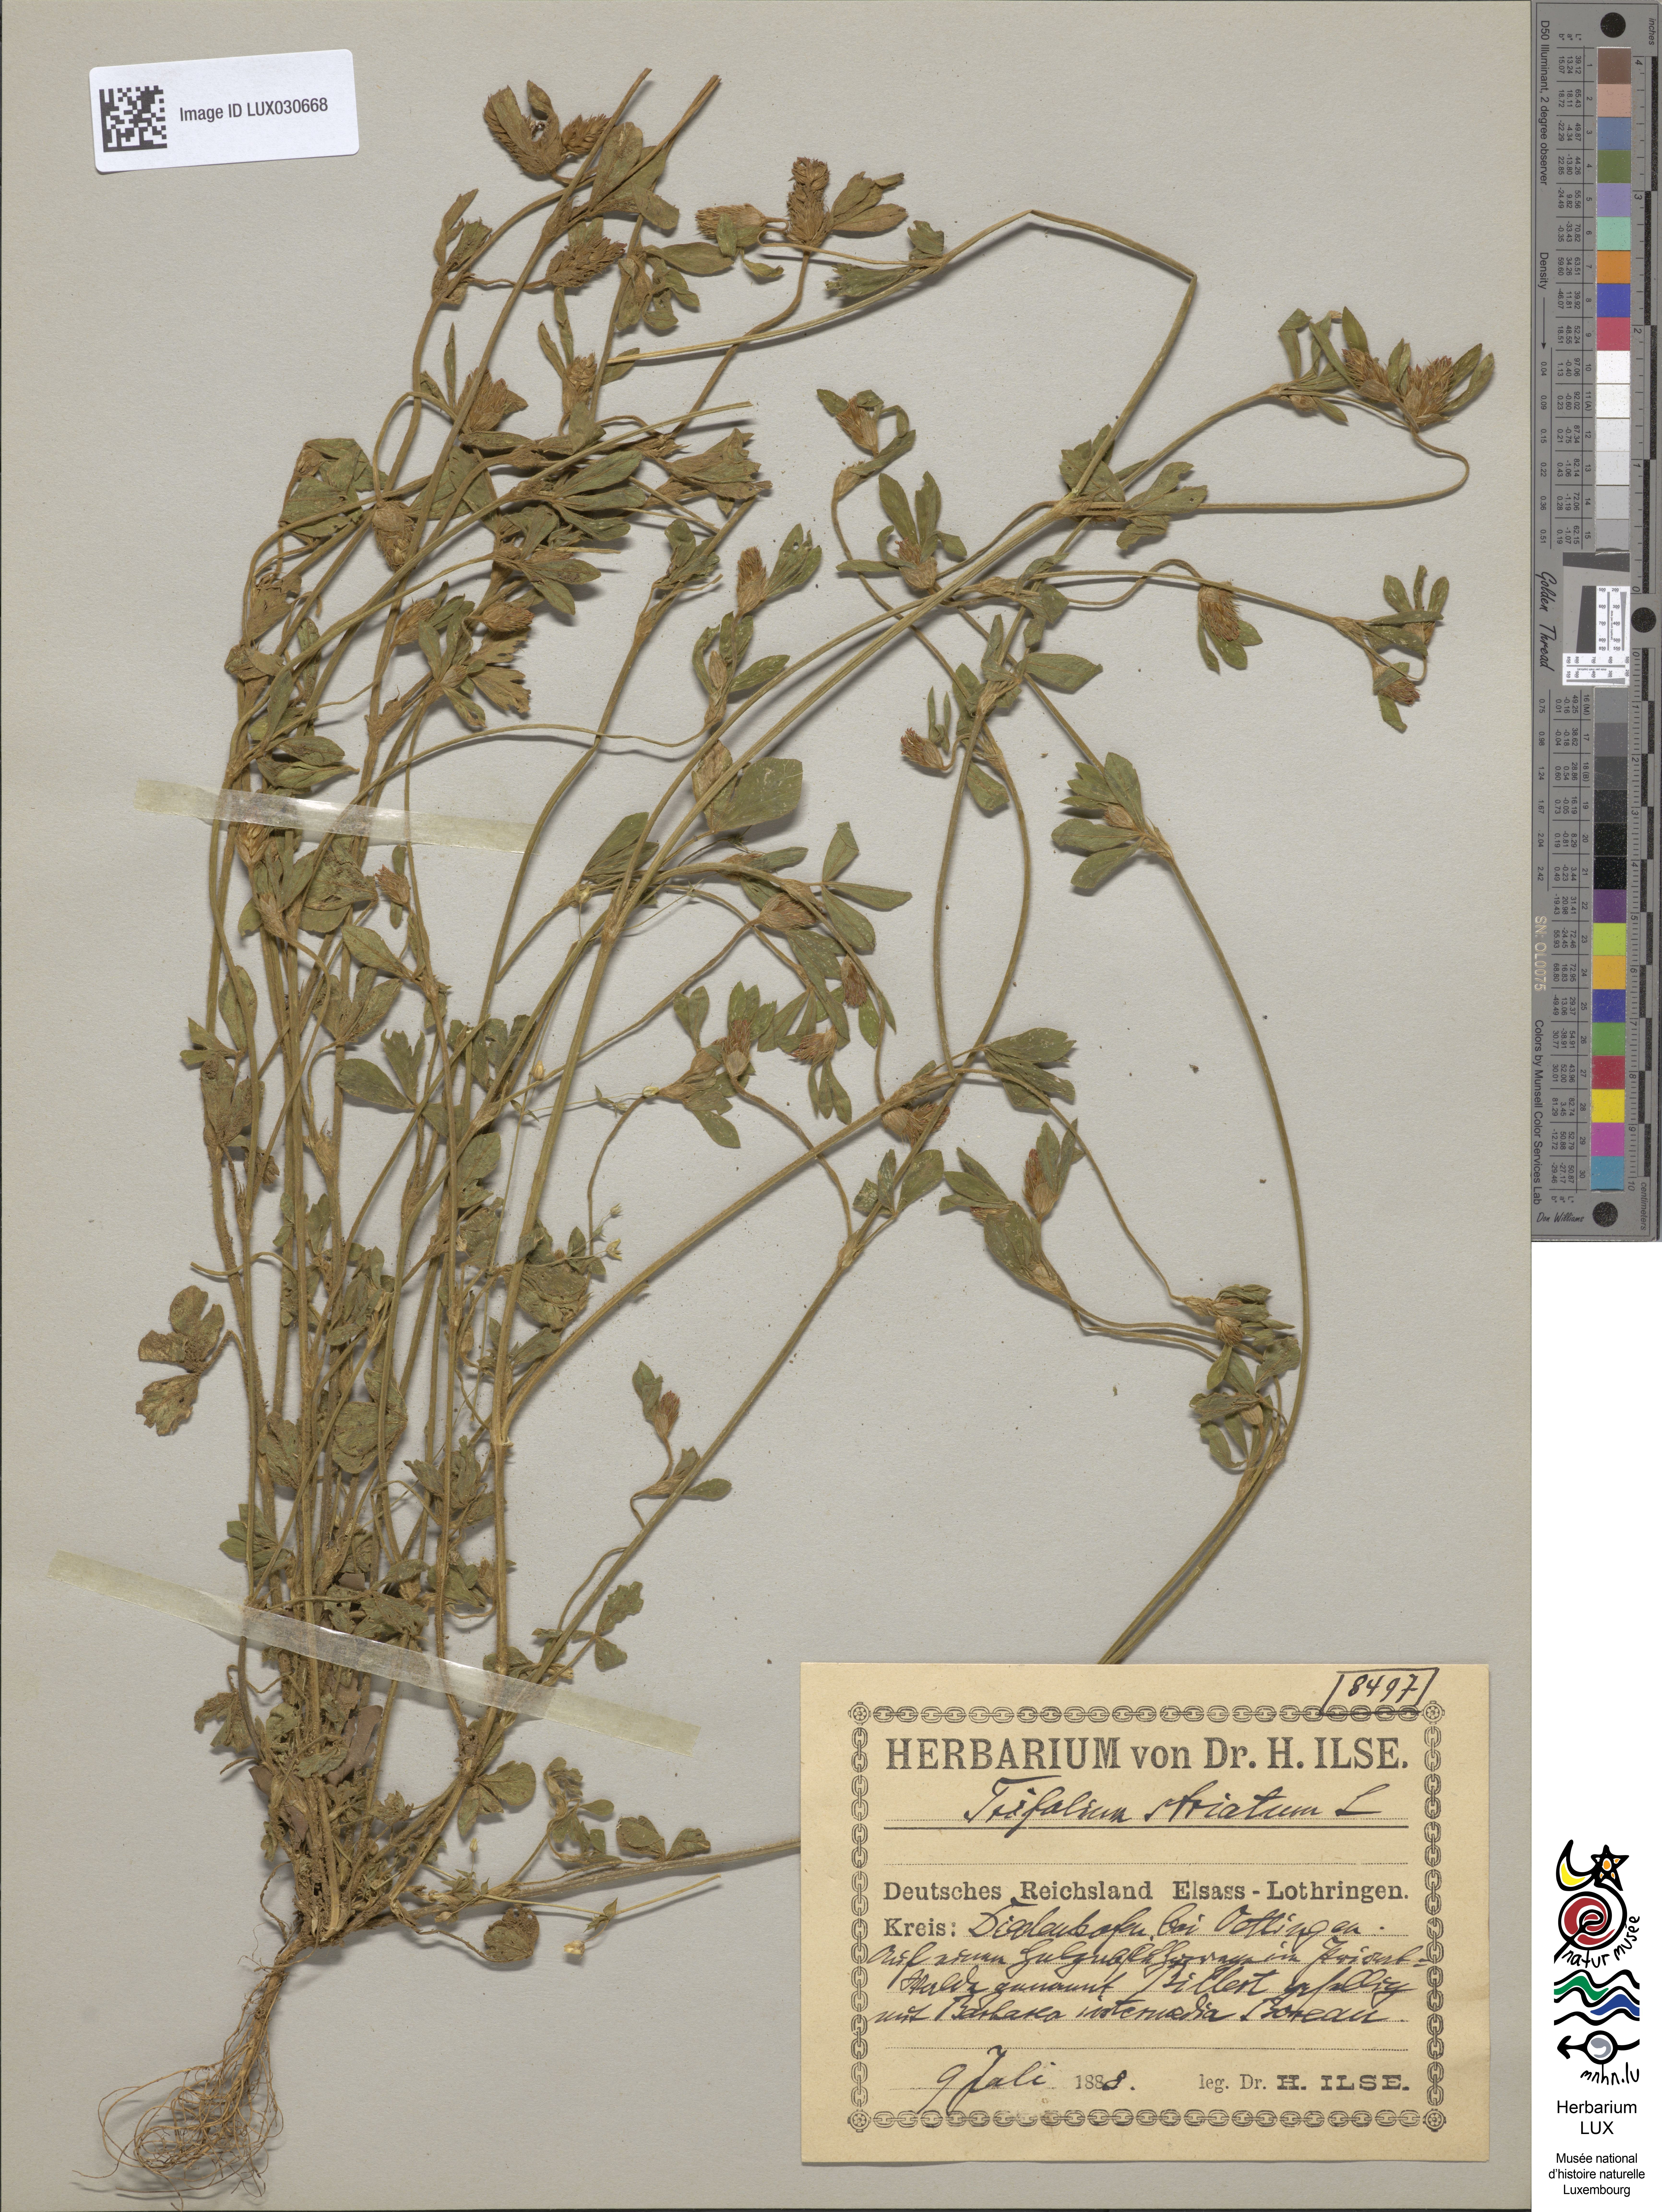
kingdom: Plantae
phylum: Tracheophyta
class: Magnoliopsida
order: Fabales
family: Fabaceae
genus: Trifolium
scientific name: Trifolium striatum
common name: Knotted clover
